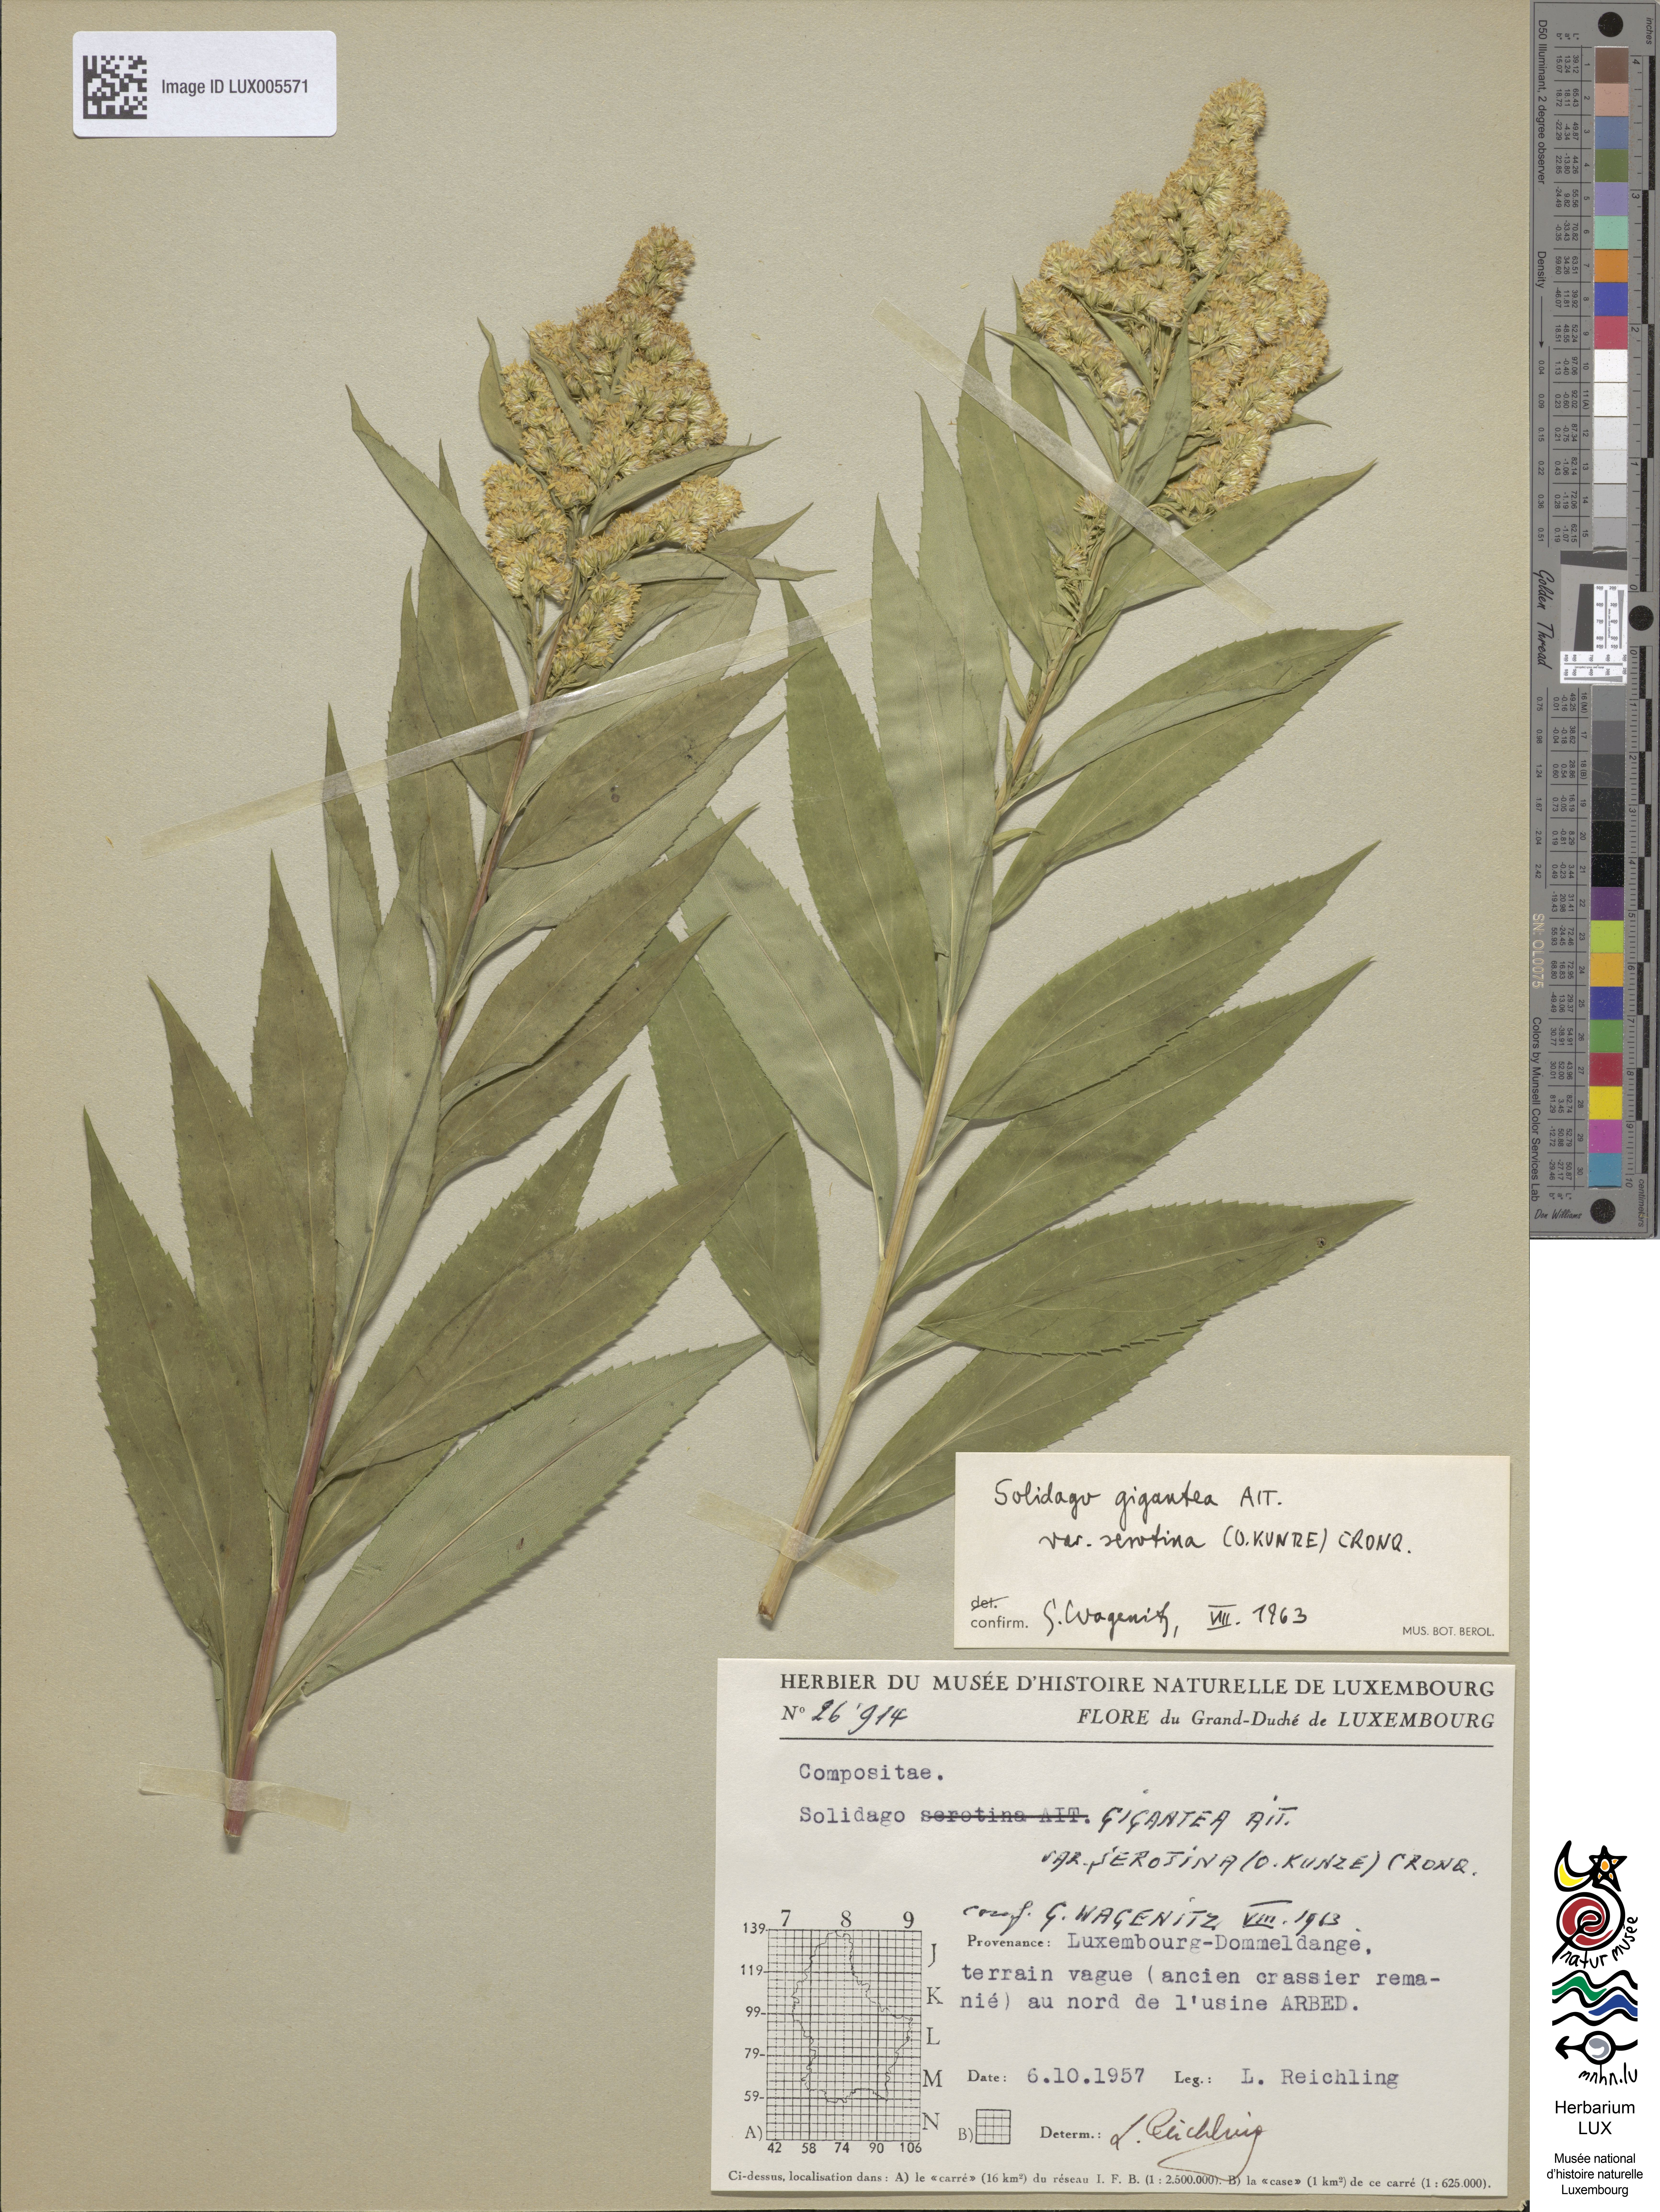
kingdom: Plantae
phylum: Tracheophyta
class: Magnoliopsida
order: Asterales
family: Asteraceae
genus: Solidago
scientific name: Solidago gigantea
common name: Giant goldenrod
